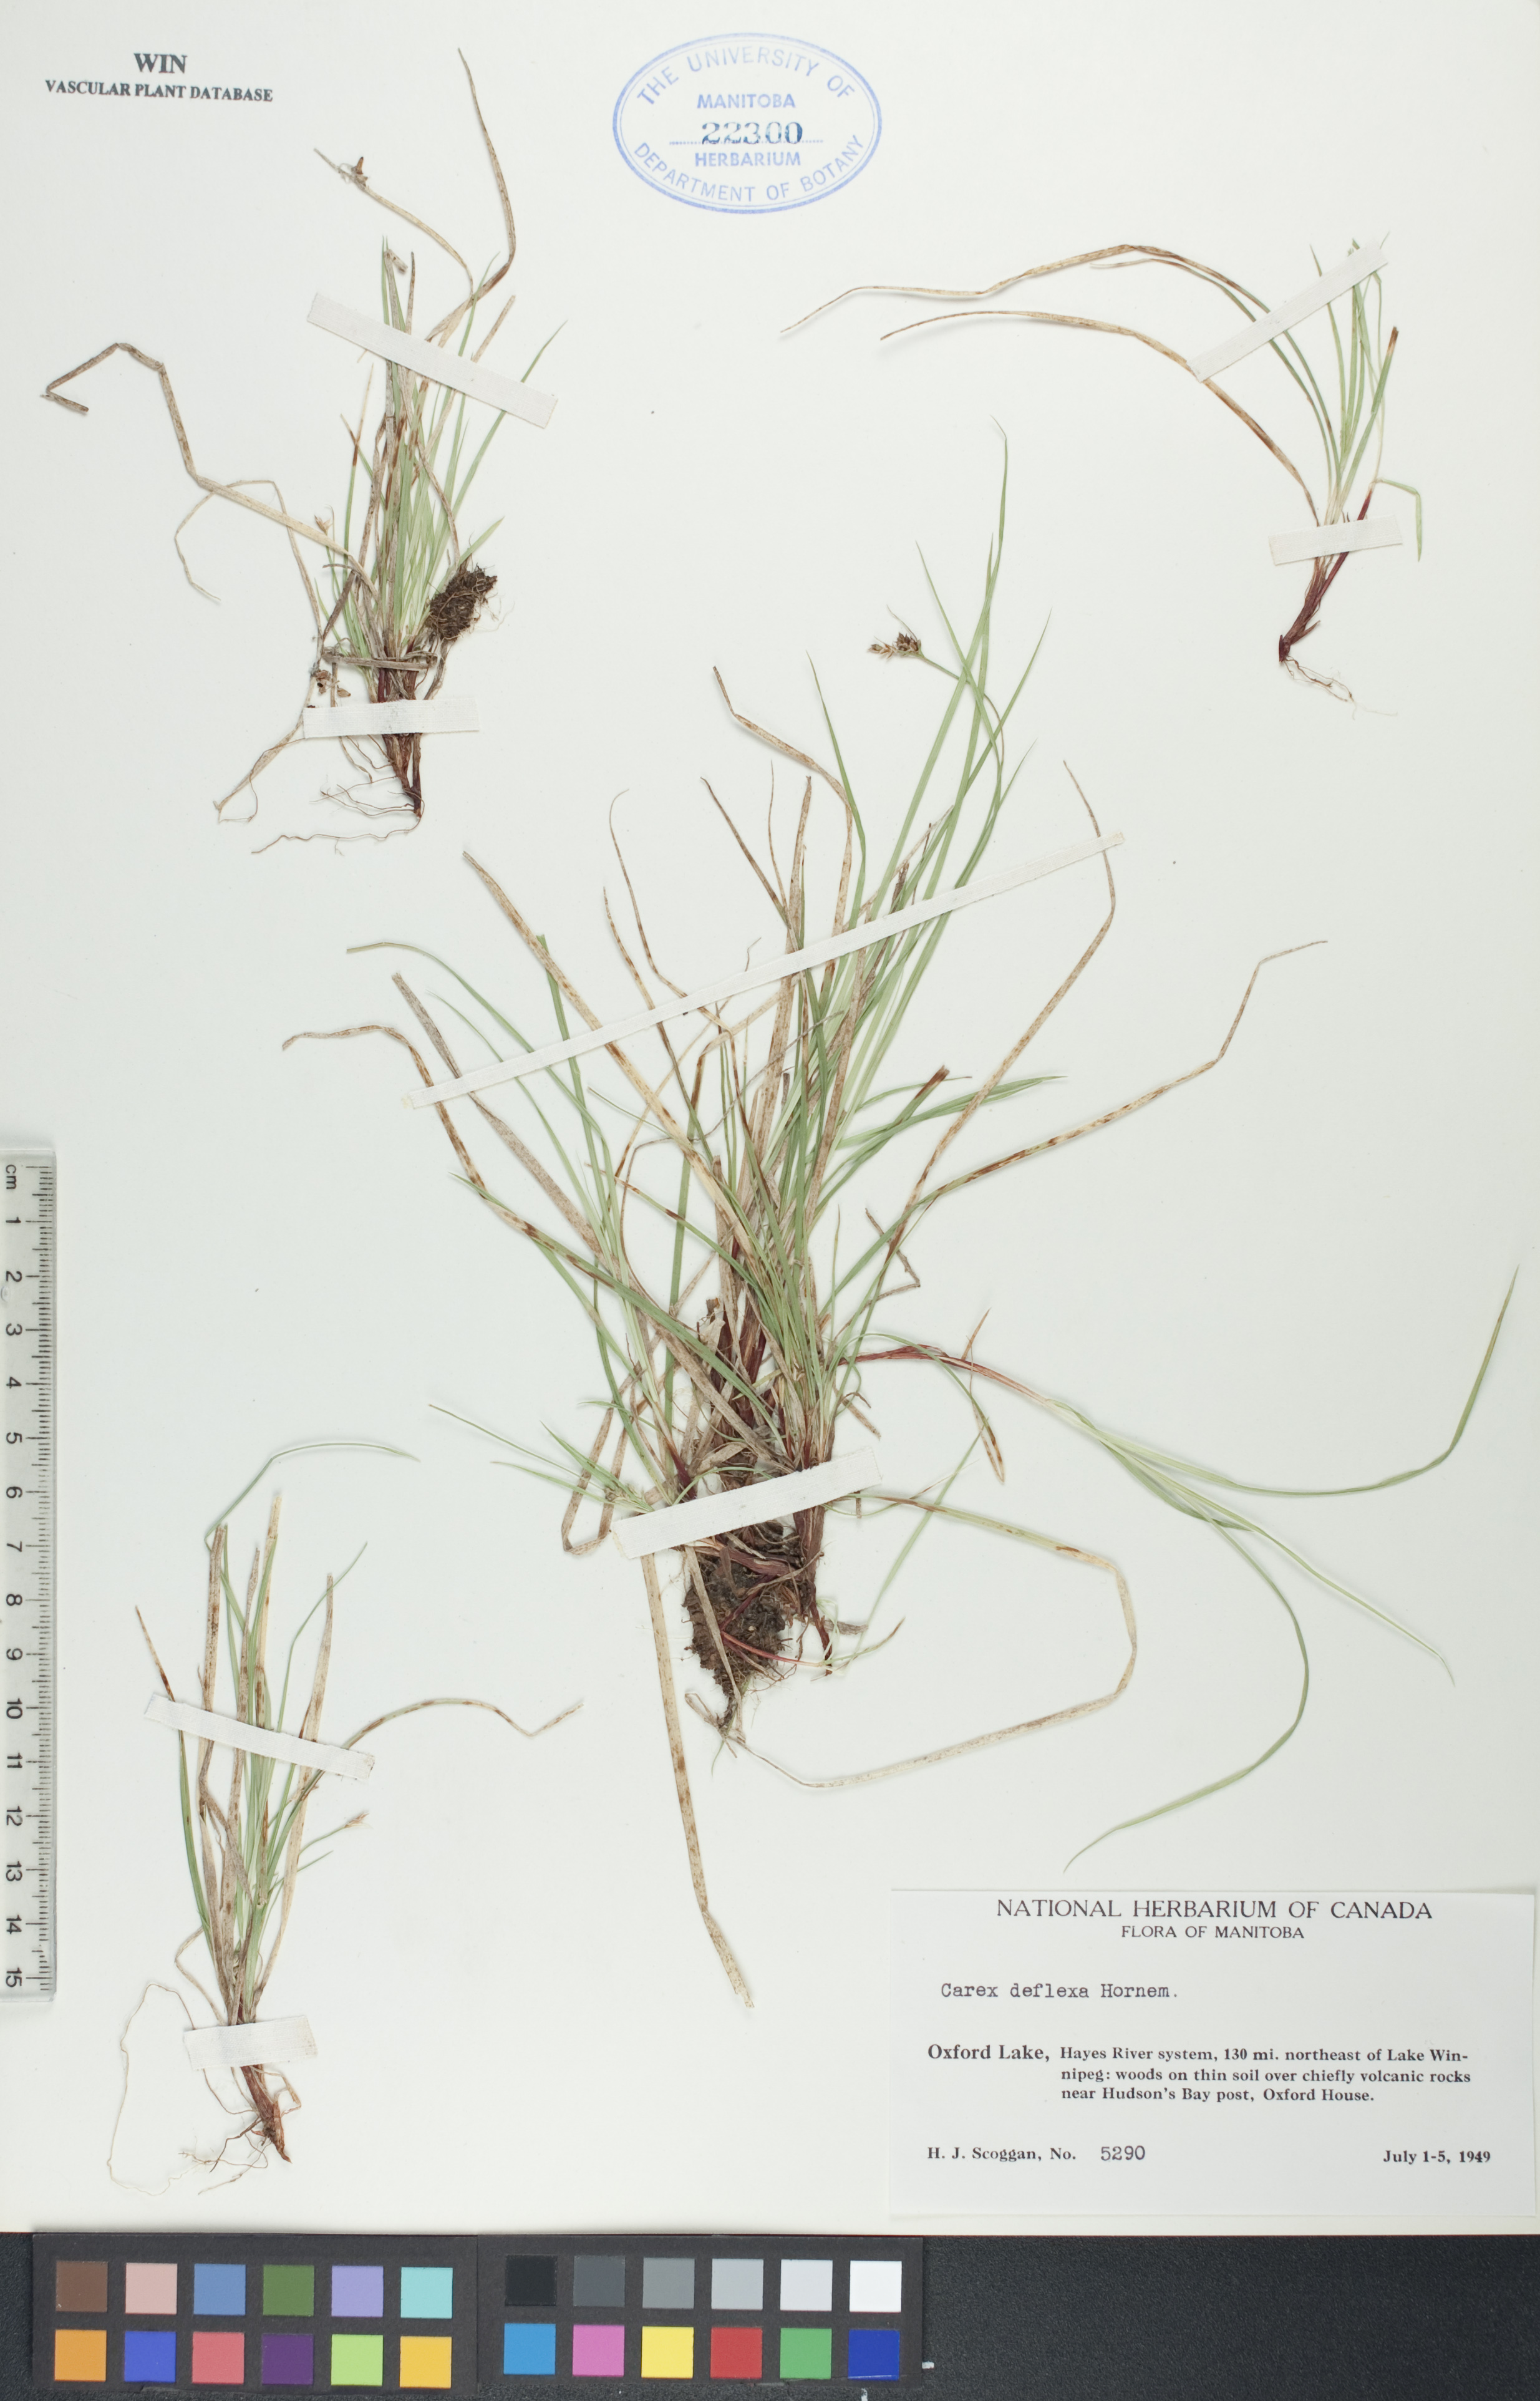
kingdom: Plantae
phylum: Tracheophyta
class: Liliopsida
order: Poales
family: Cyperaceae
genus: Carex
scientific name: Carex deflexa
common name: Bent northern sedge
